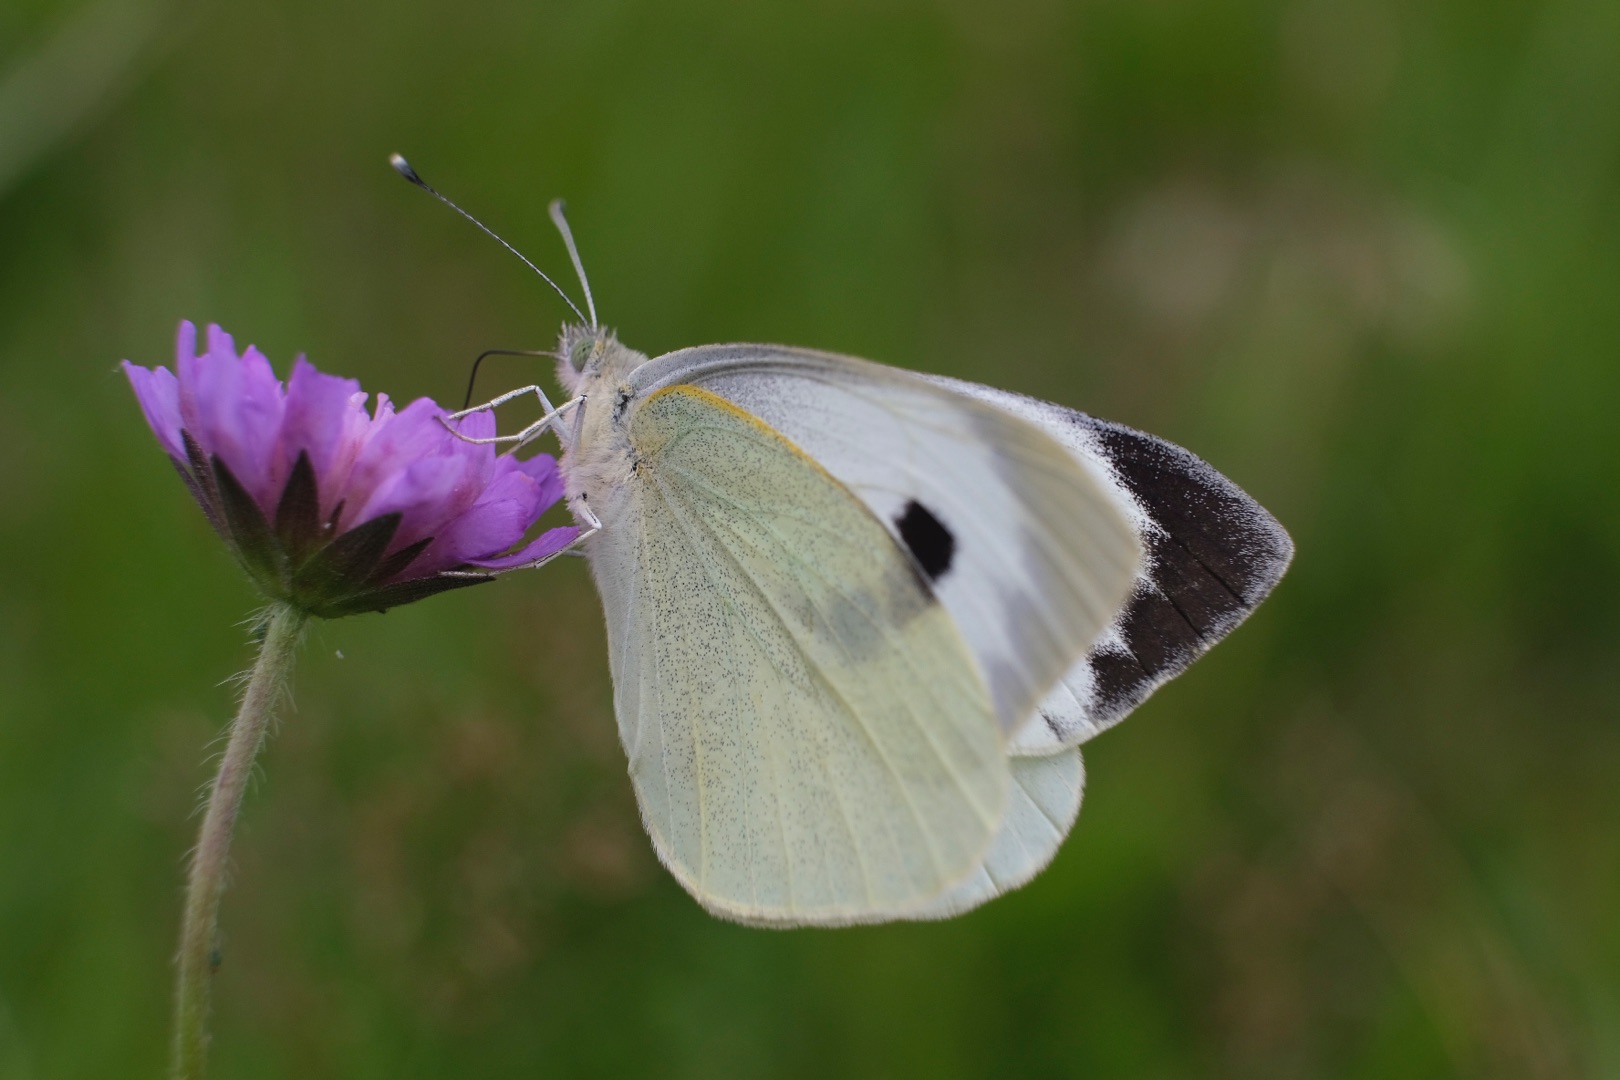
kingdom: Animalia
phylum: Arthropoda
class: Insecta
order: Lepidoptera
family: Pieridae
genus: Pieris
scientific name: Pieris brassicae
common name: Stor kålsommerfugl
